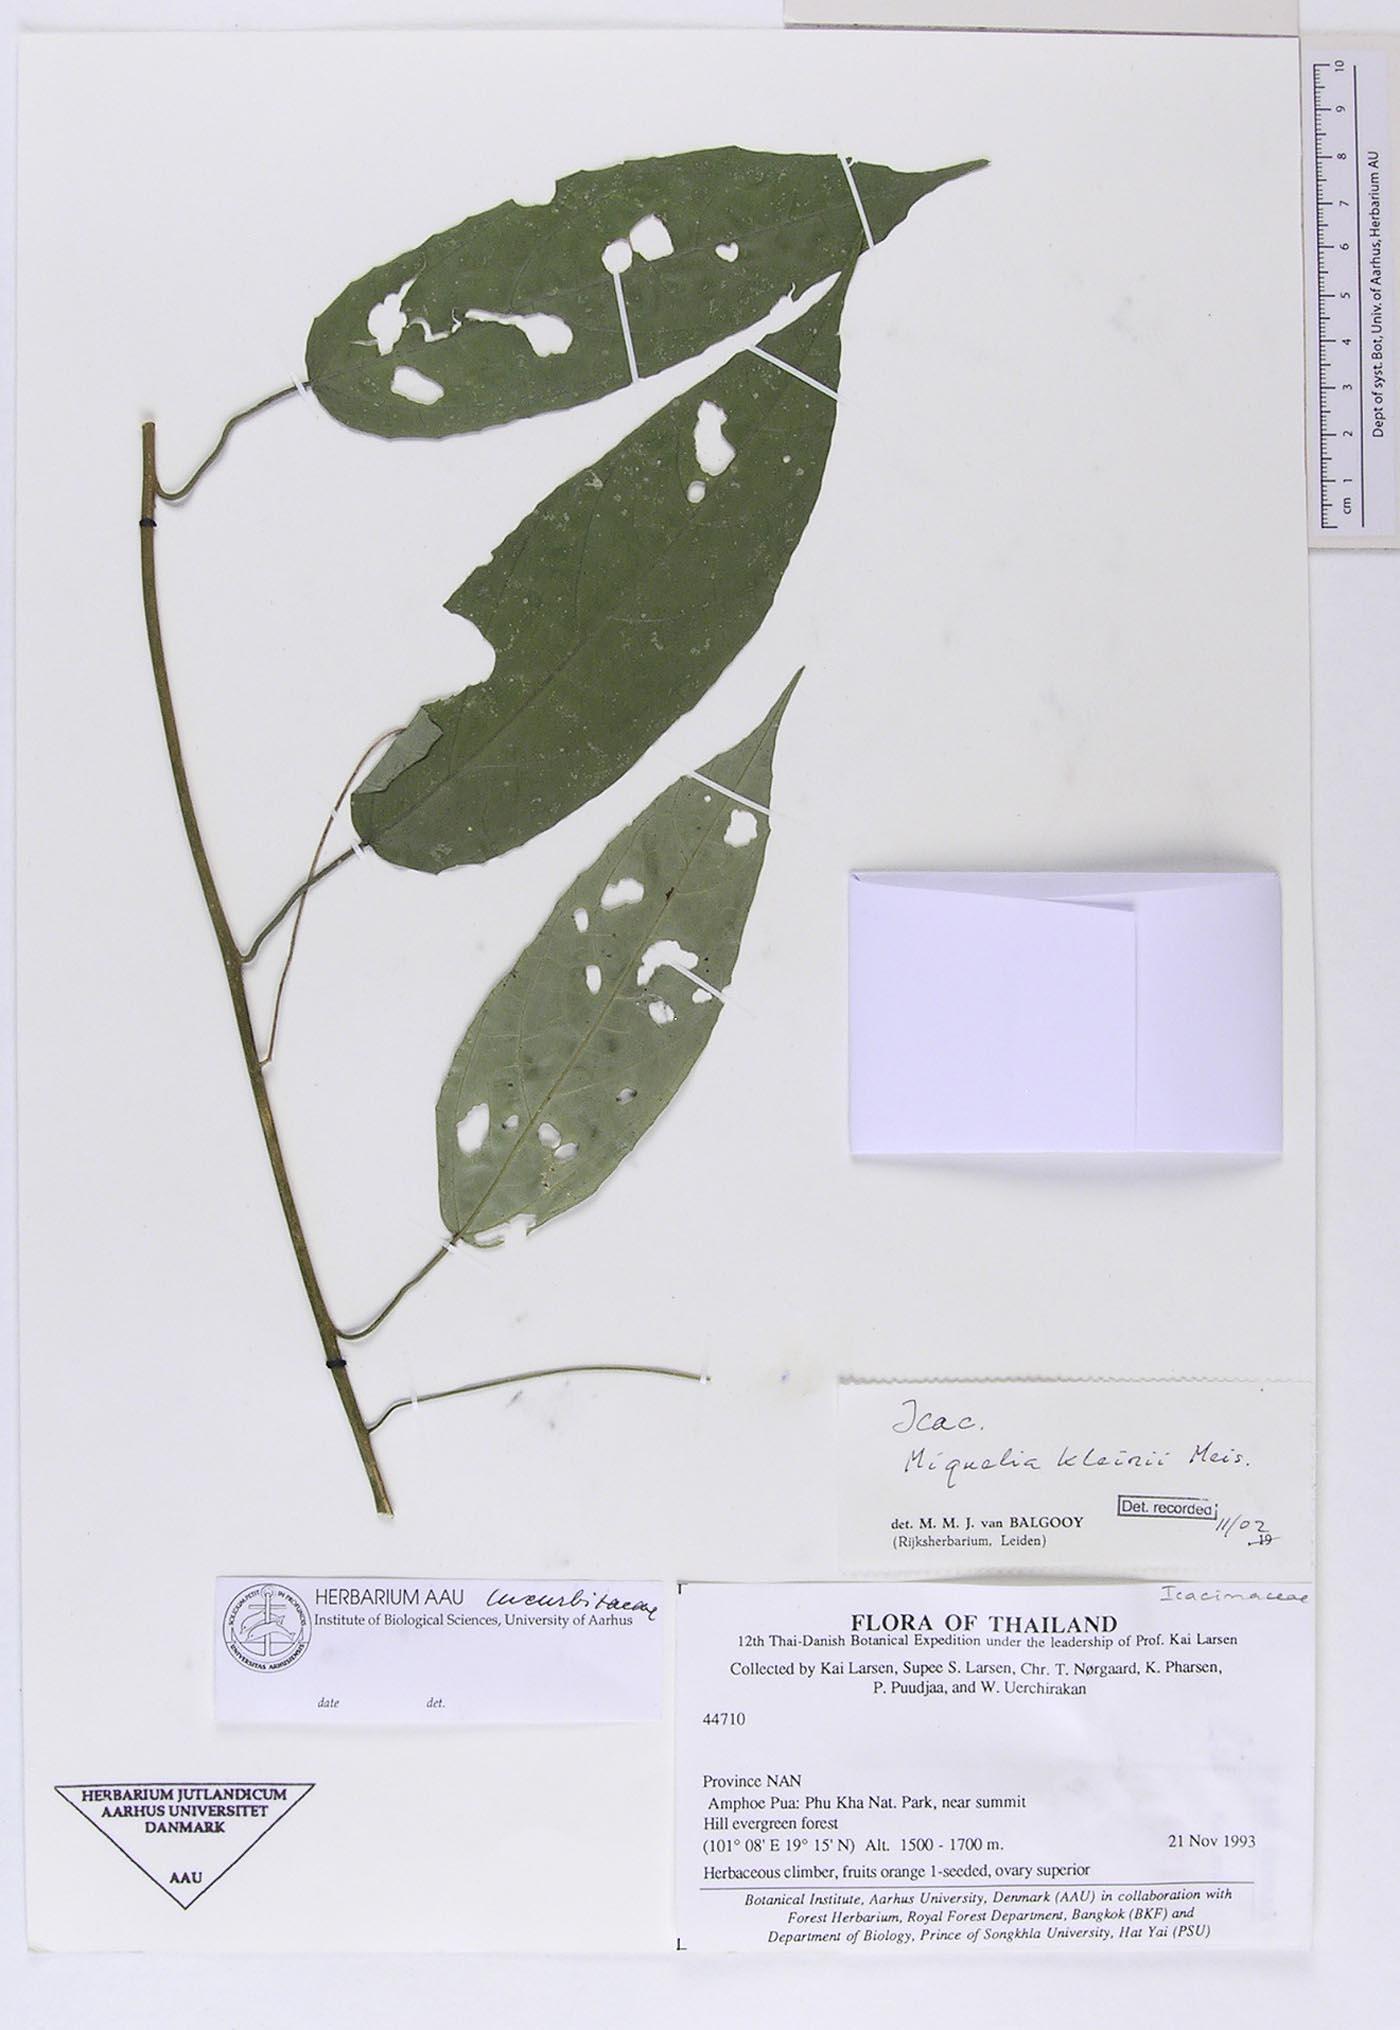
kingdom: Plantae
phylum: Tracheophyta
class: Magnoliopsida
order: Icacinales
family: Icacinaceae
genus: Miquelia
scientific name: Miquelia kleinii
